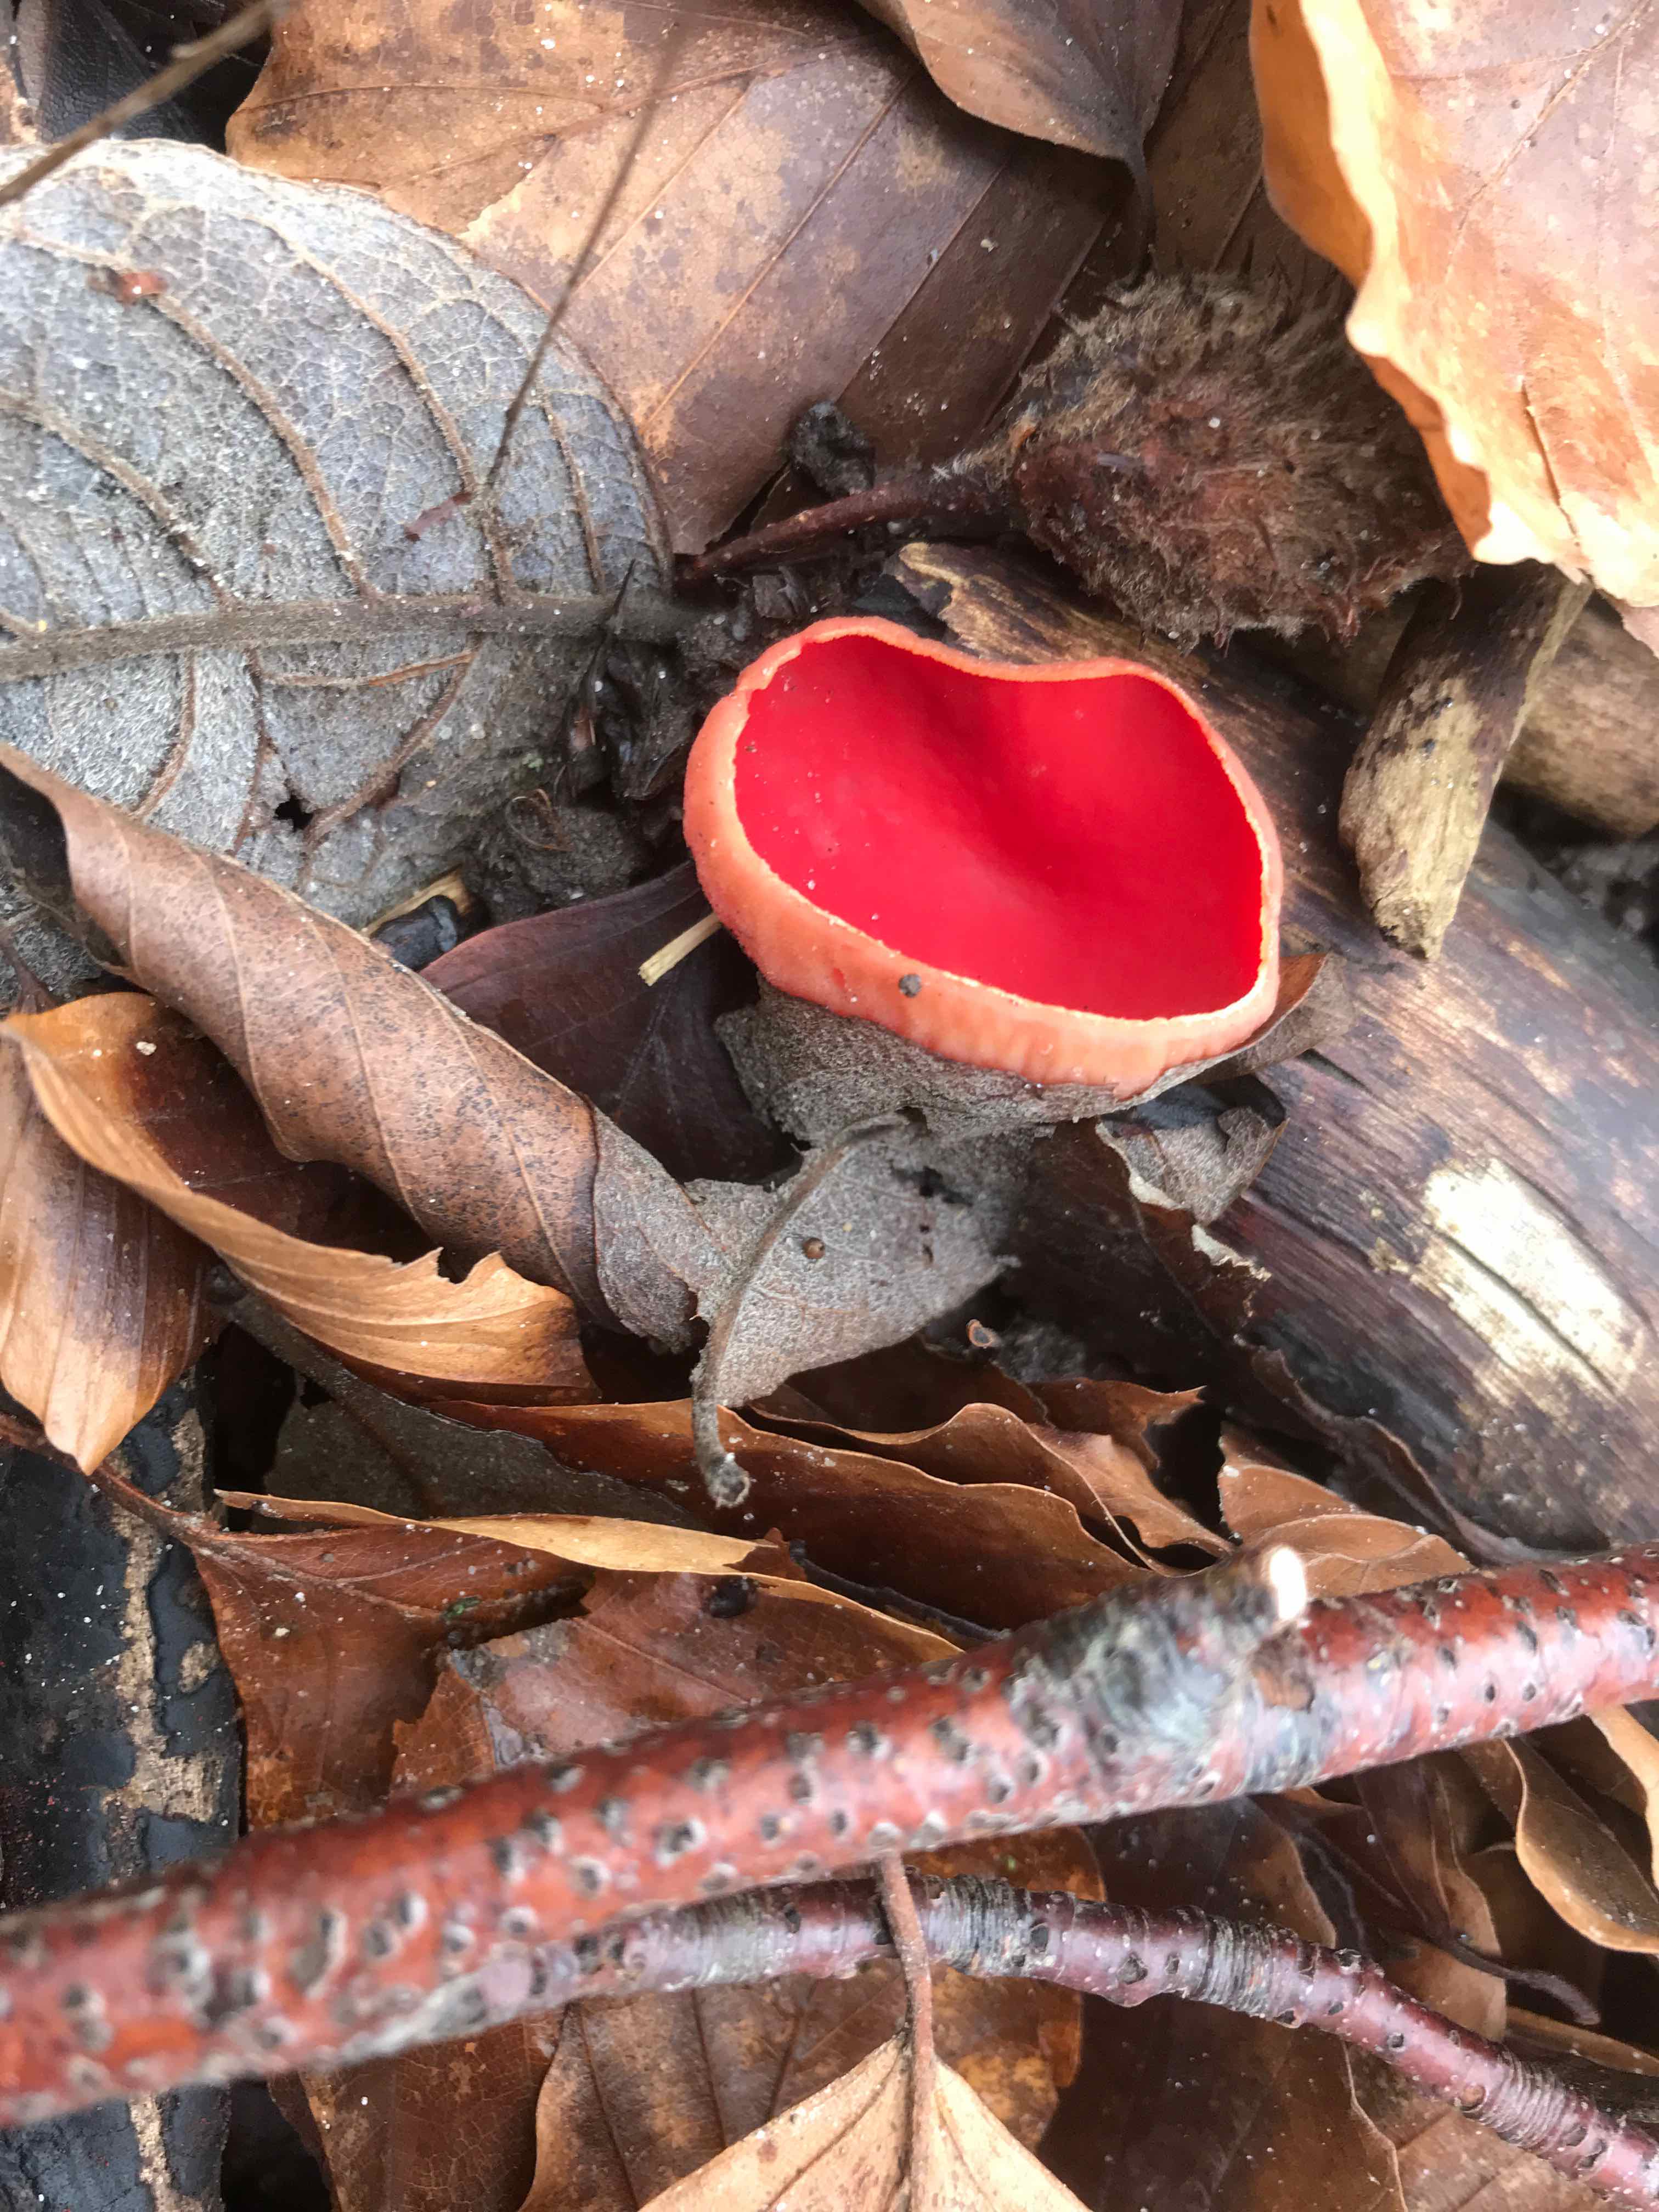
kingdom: Fungi
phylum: Ascomycota
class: Pezizomycetes
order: Pezizales
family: Sarcoscyphaceae
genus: Sarcoscypha
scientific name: Sarcoscypha austriaca
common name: krølhåret pragtbæger
